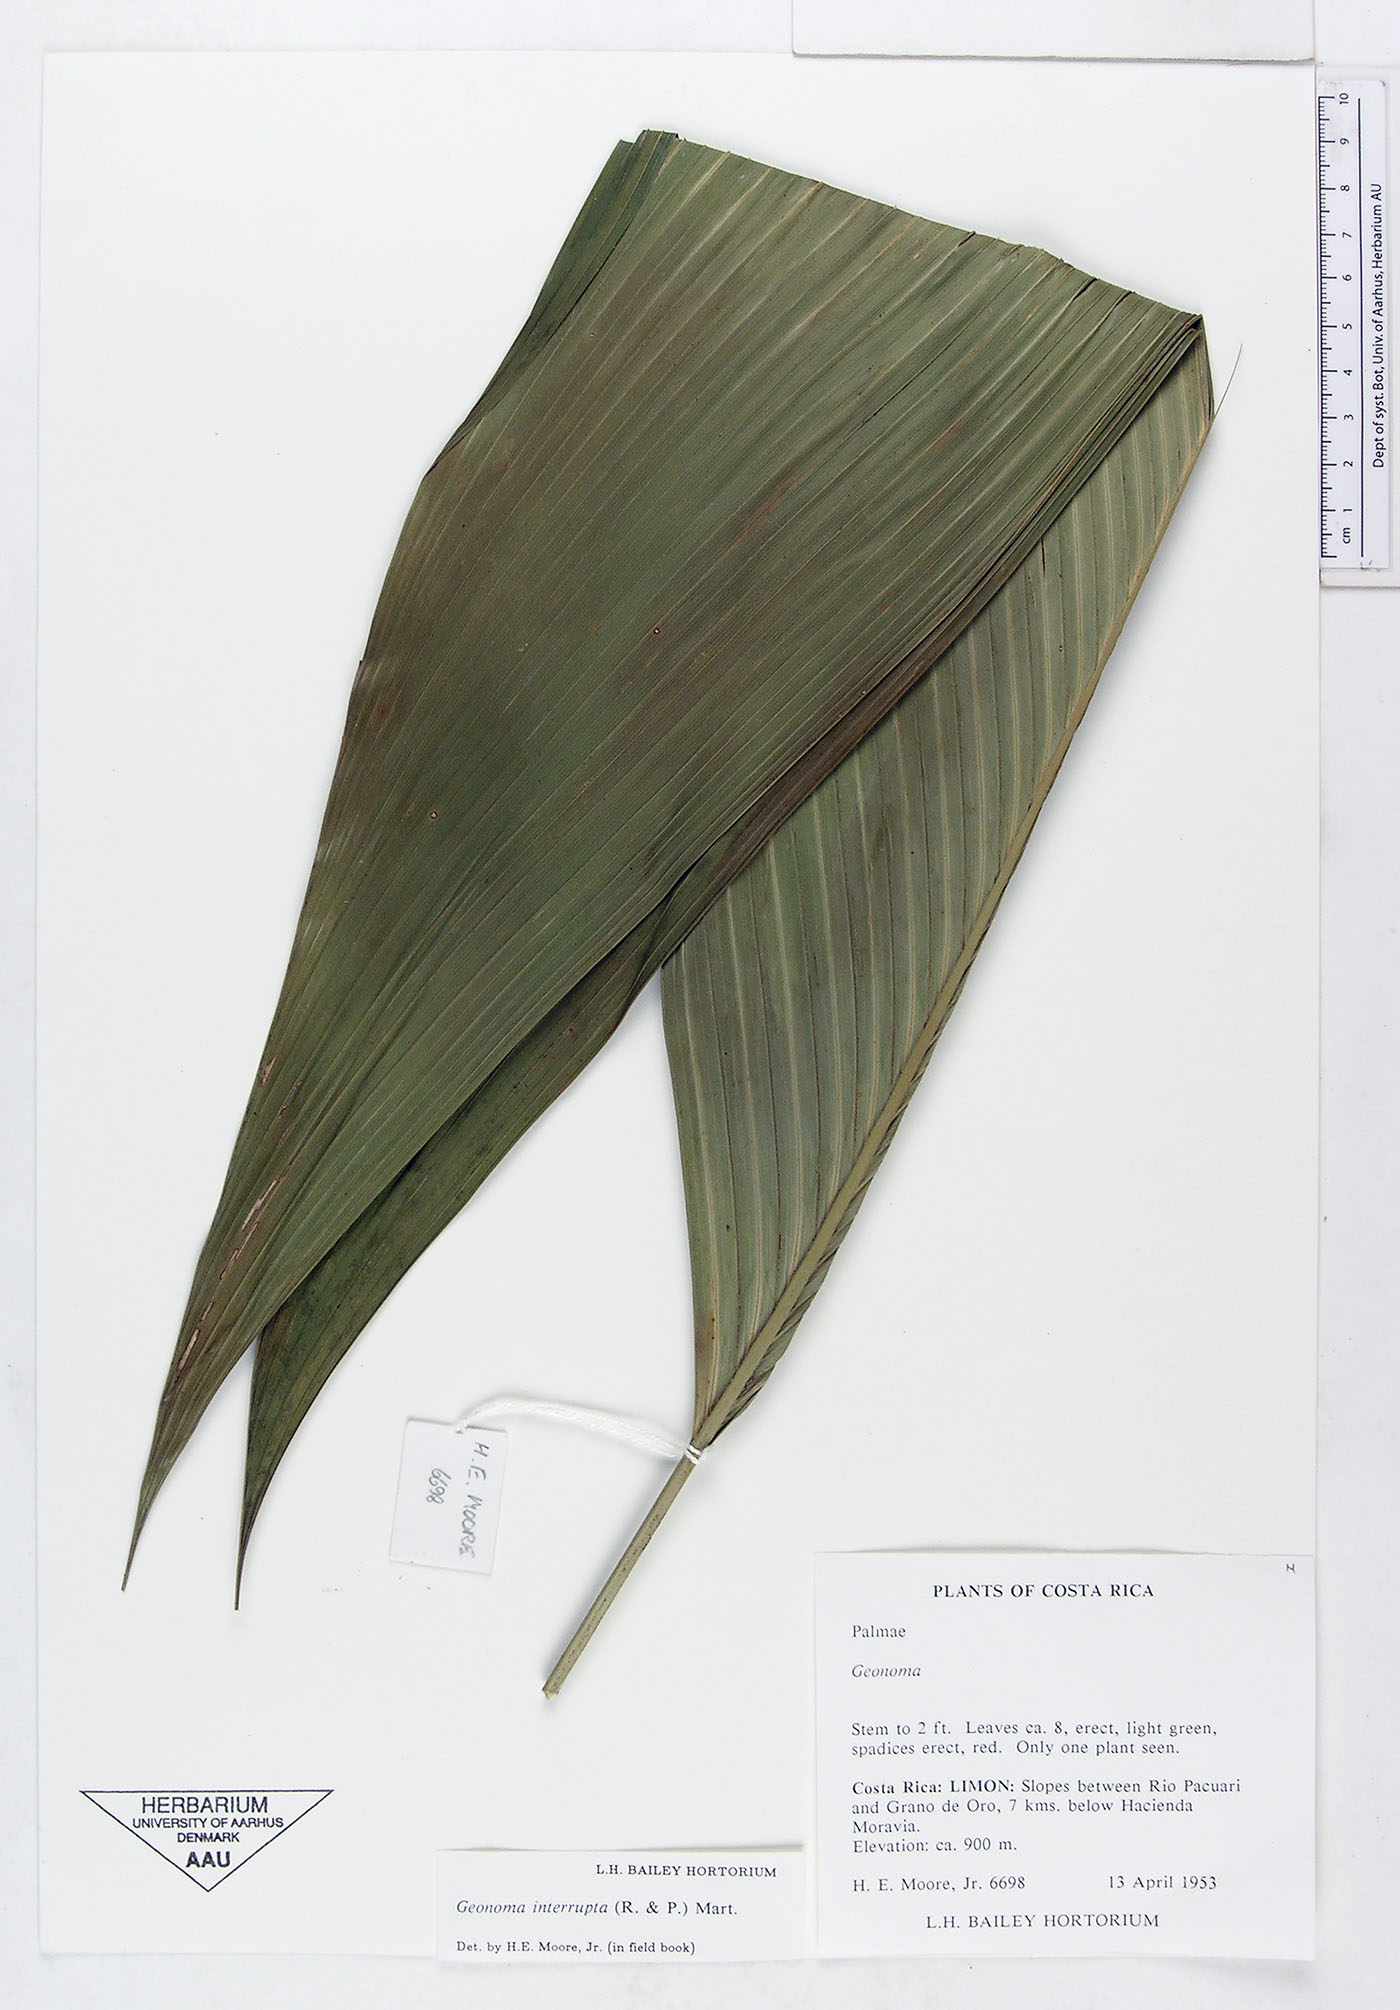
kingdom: Plantae
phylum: Tracheophyta
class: Liliopsida
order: Arecales
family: Arecaceae
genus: Geonoma
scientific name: Geonoma interrupta
